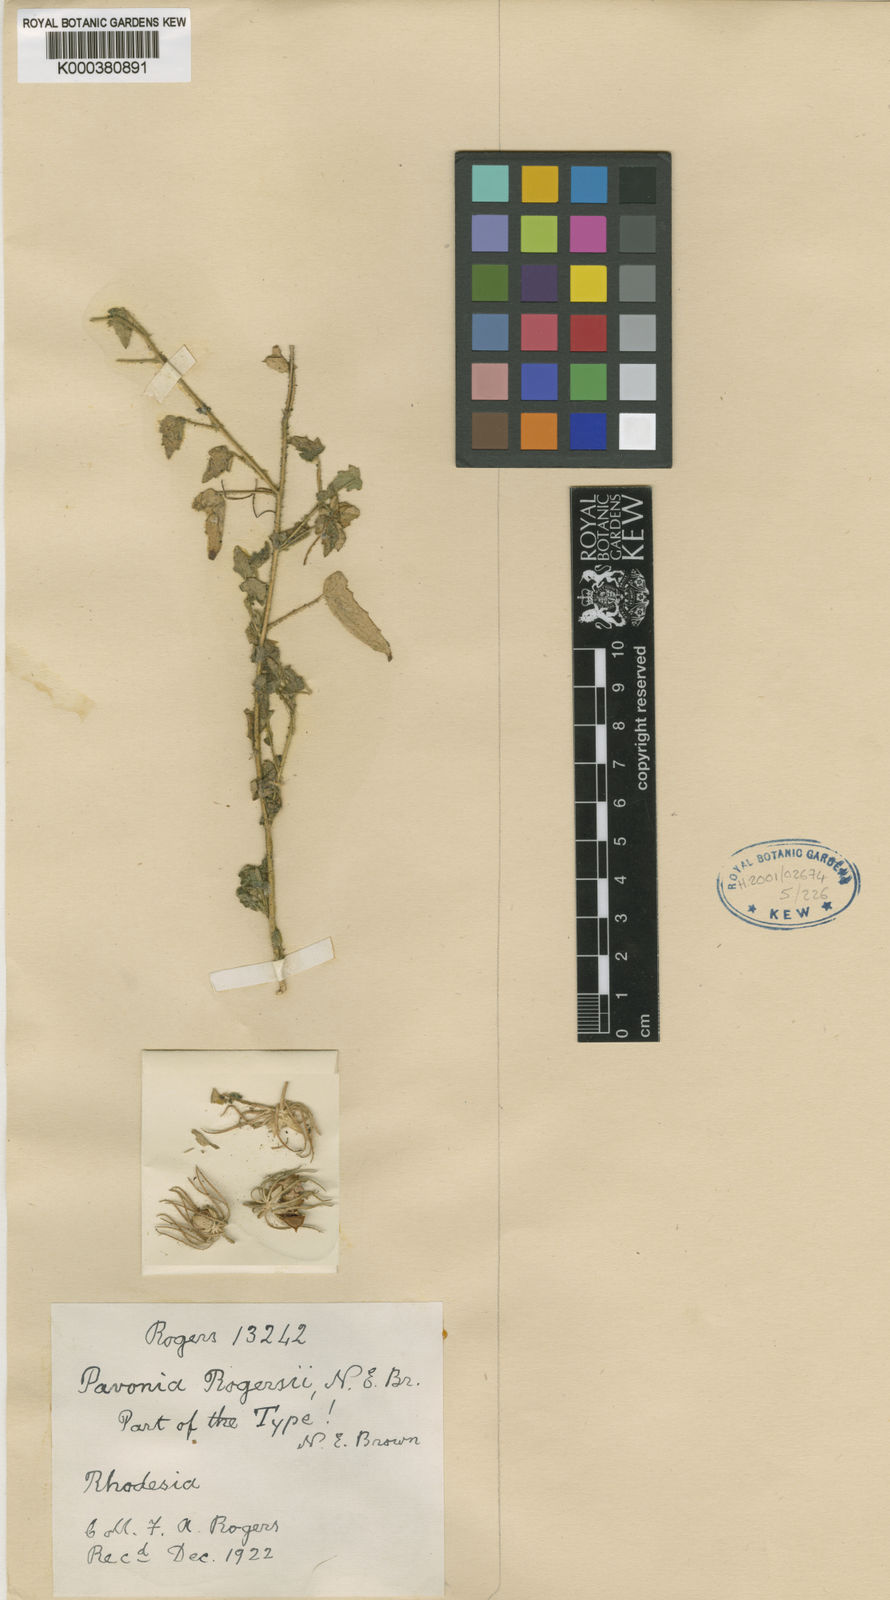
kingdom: Plantae
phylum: Tracheophyta
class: Magnoliopsida
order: Malvales
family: Malvaceae
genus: Pavonia
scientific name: Pavonia rogersii
